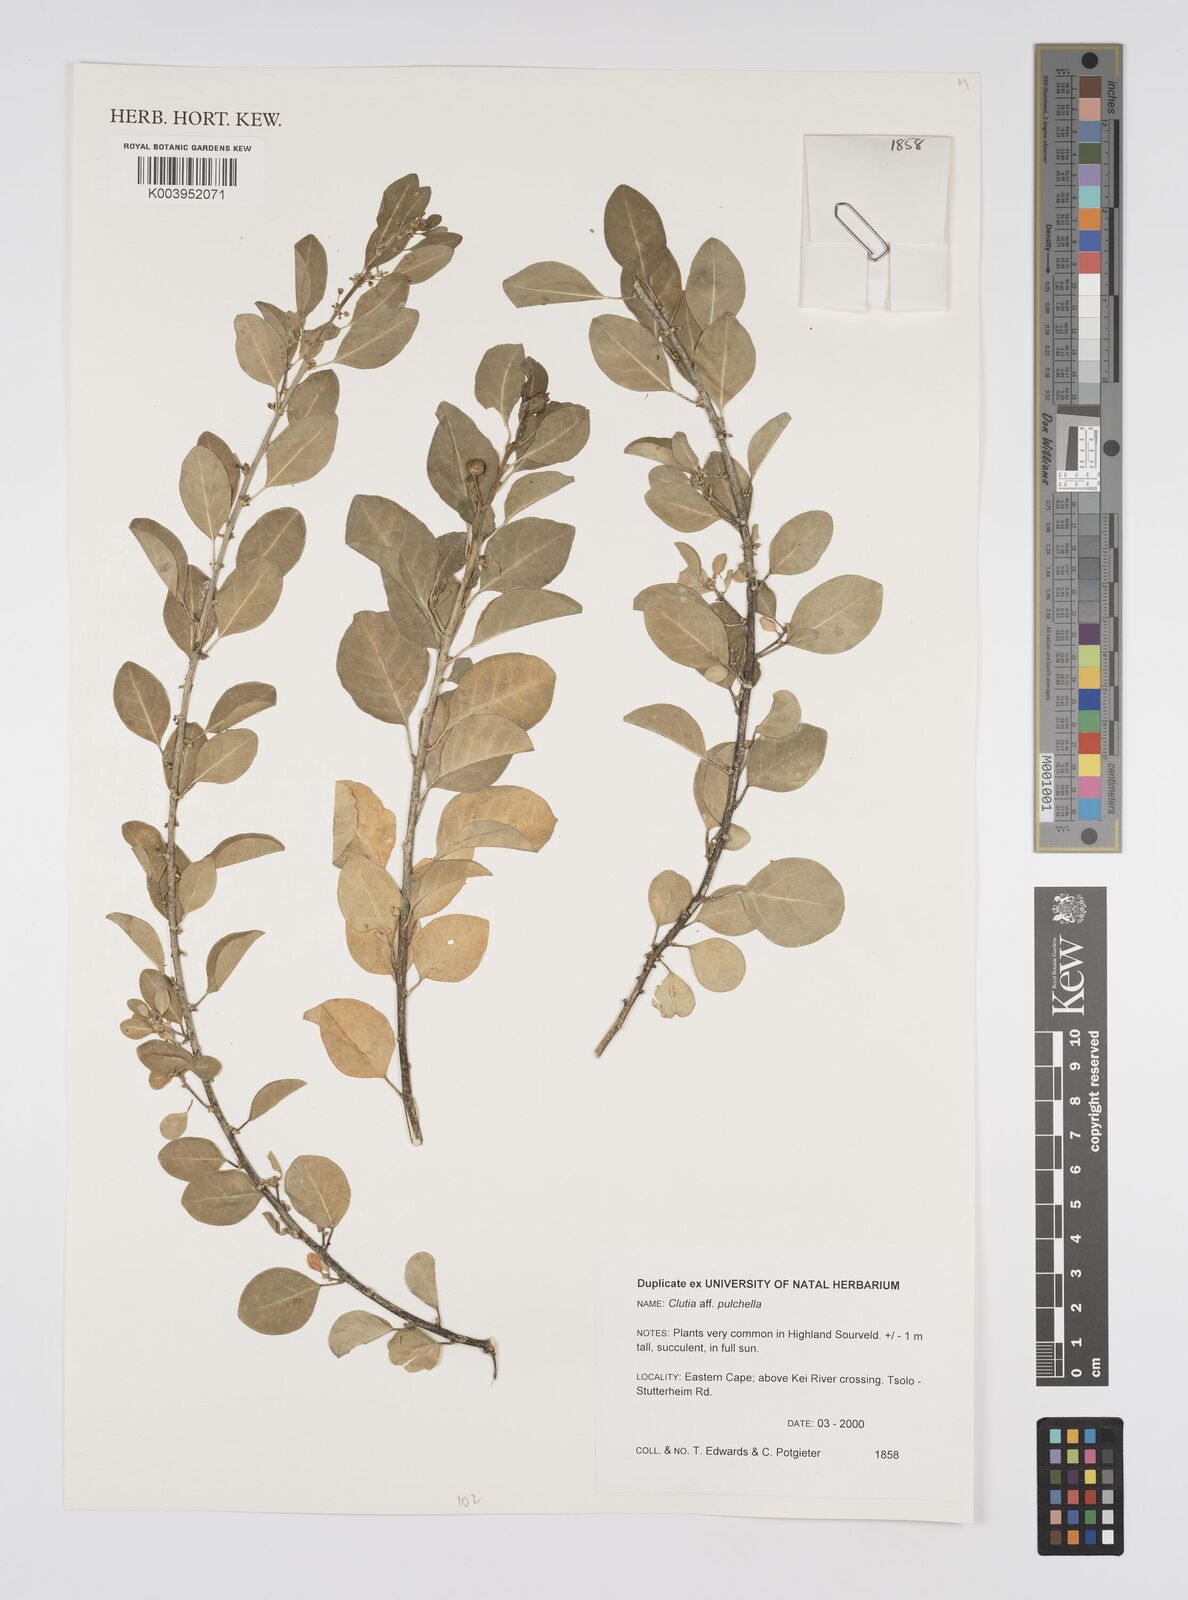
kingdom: Plantae
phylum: Tracheophyta
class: Magnoliopsida
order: Malpighiales
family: Peraceae
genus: Clutia
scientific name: Clutia pulchella
